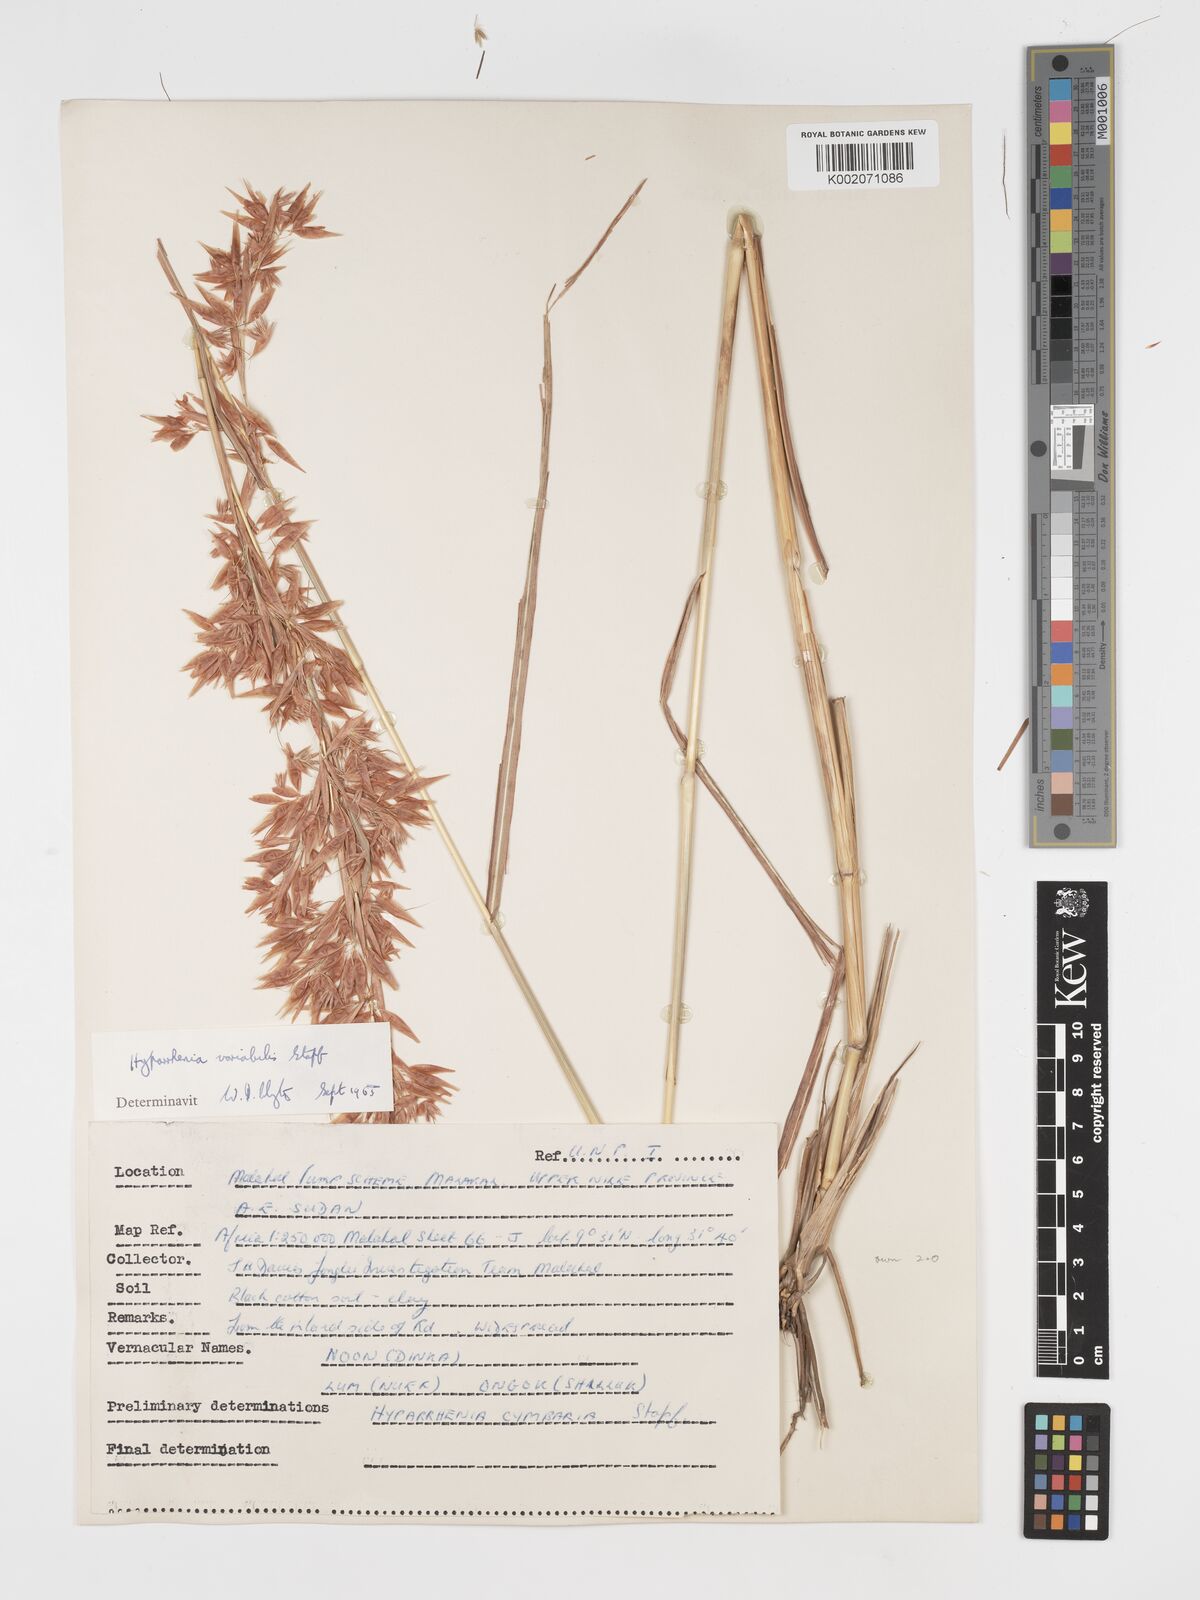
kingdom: Plantae
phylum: Tracheophyta
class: Liliopsida
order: Poales
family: Poaceae
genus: Hyparrhenia
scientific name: Hyparrhenia variabilis
